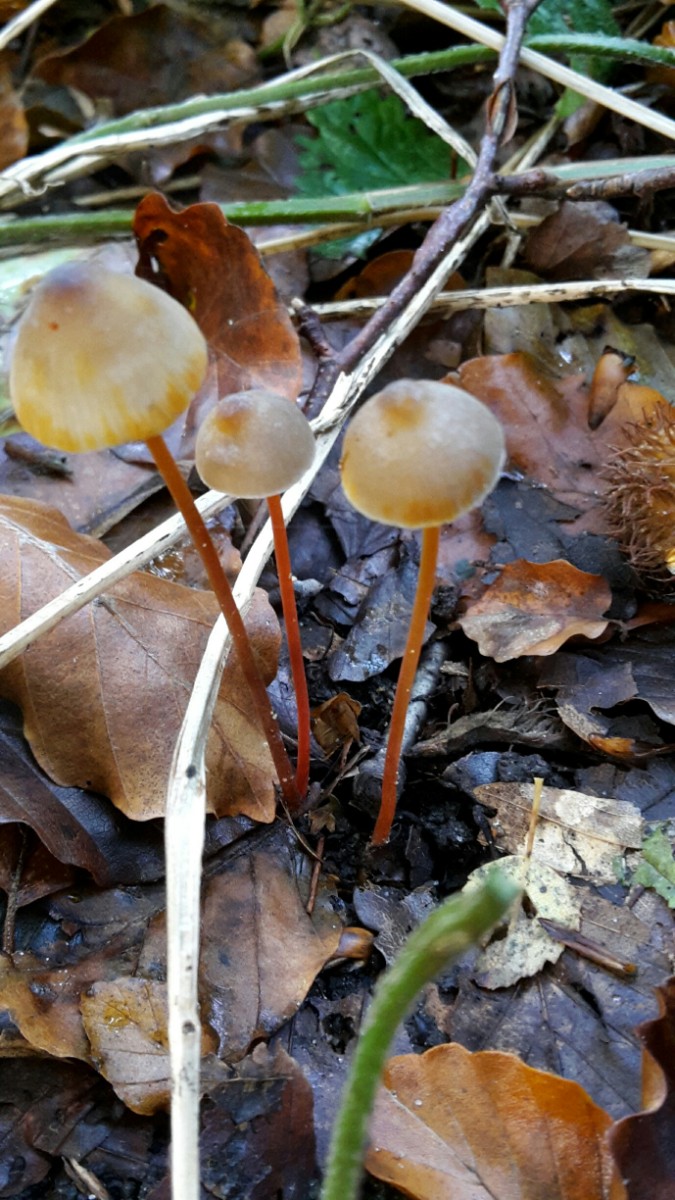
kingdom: Fungi
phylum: Basidiomycota
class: Agaricomycetes
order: Agaricales
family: Mycenaceae
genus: Mycena
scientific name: Mycena crocata
